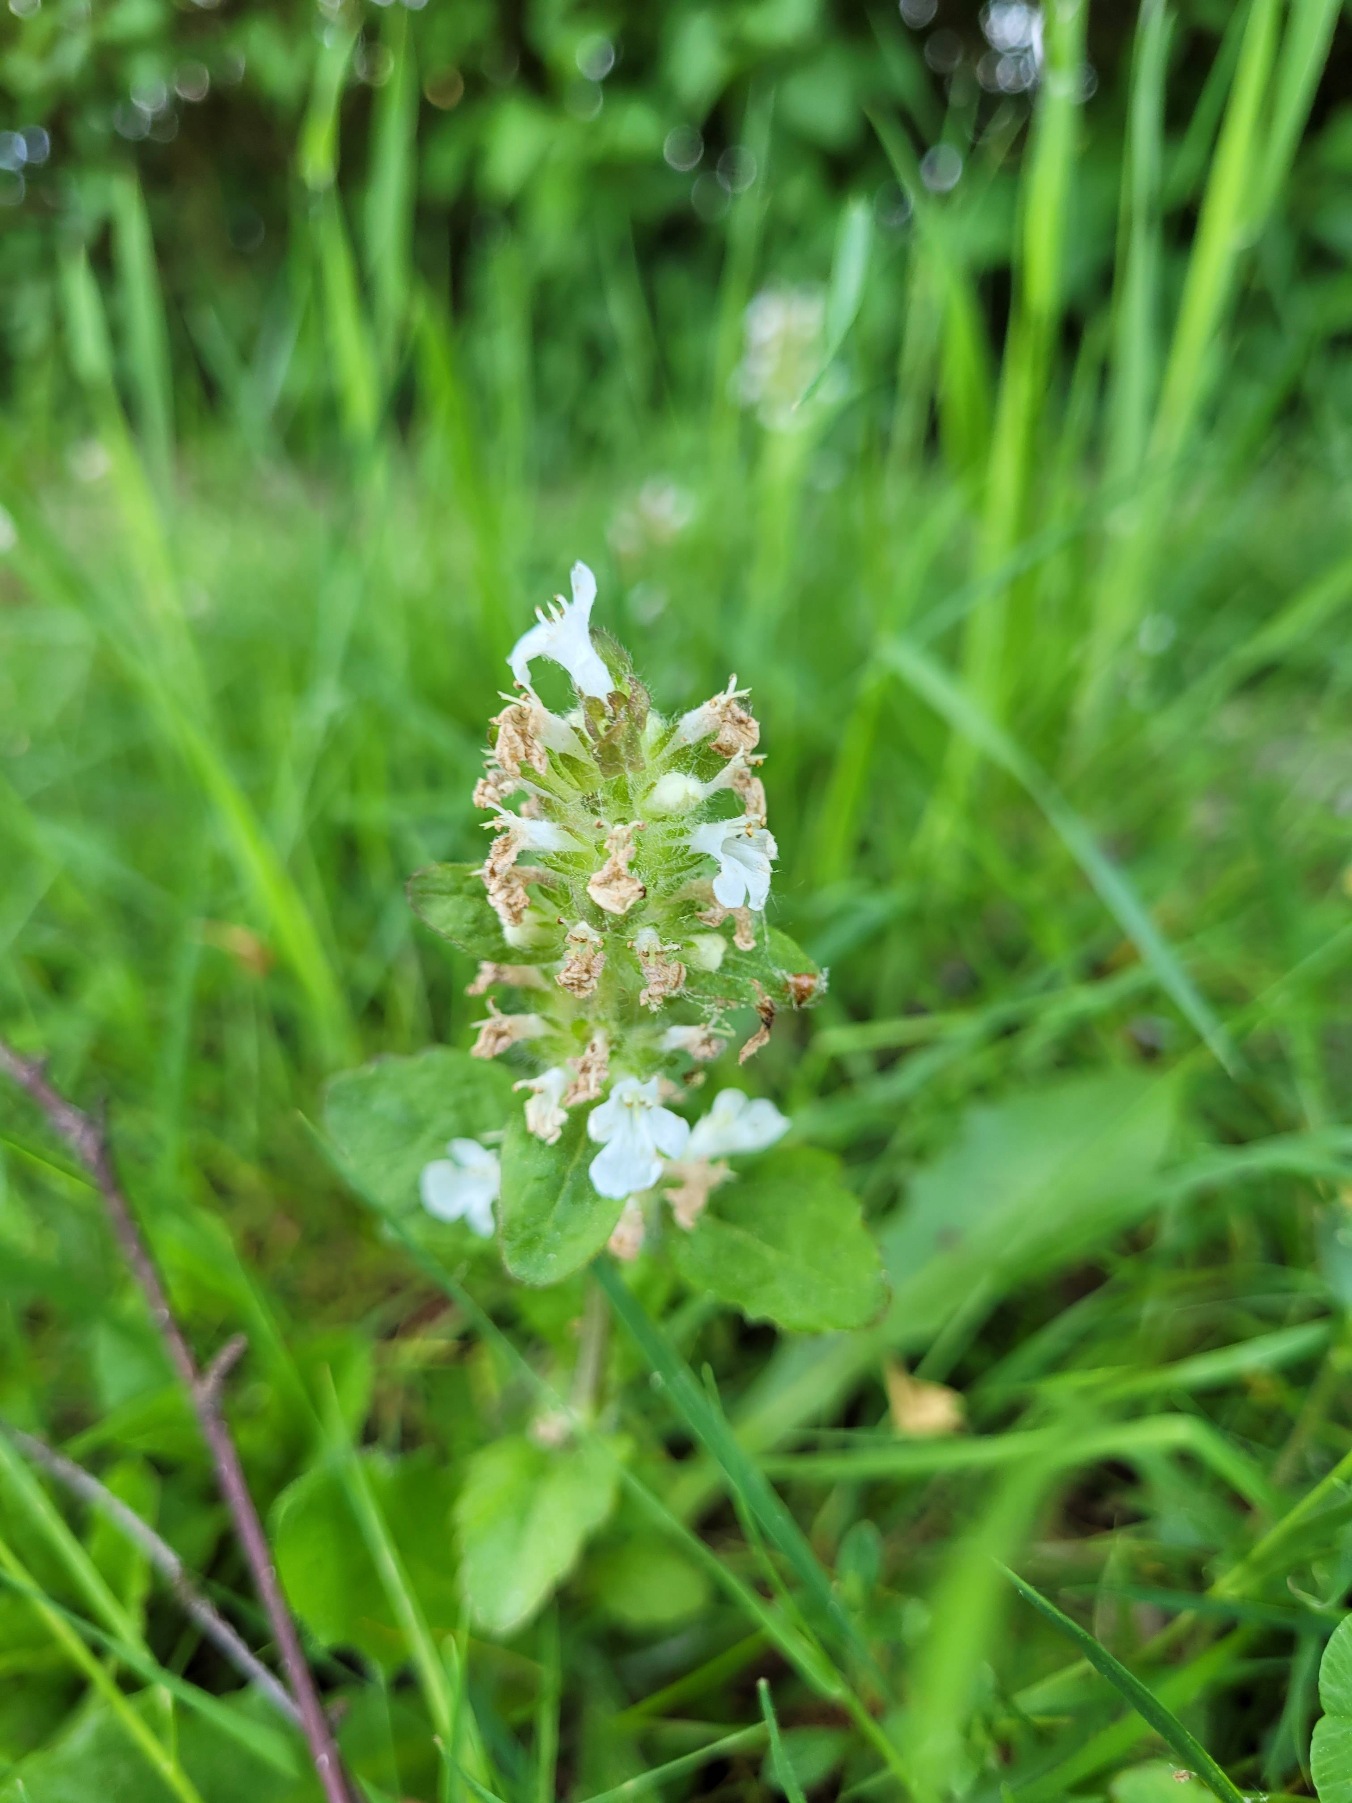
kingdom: Plantae
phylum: Tracheophyta
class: Magnoliopsida
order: Lamiales
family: Lamiaceae
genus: Ajuga
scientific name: Ajuga reptans
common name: Krybende læbeløs
